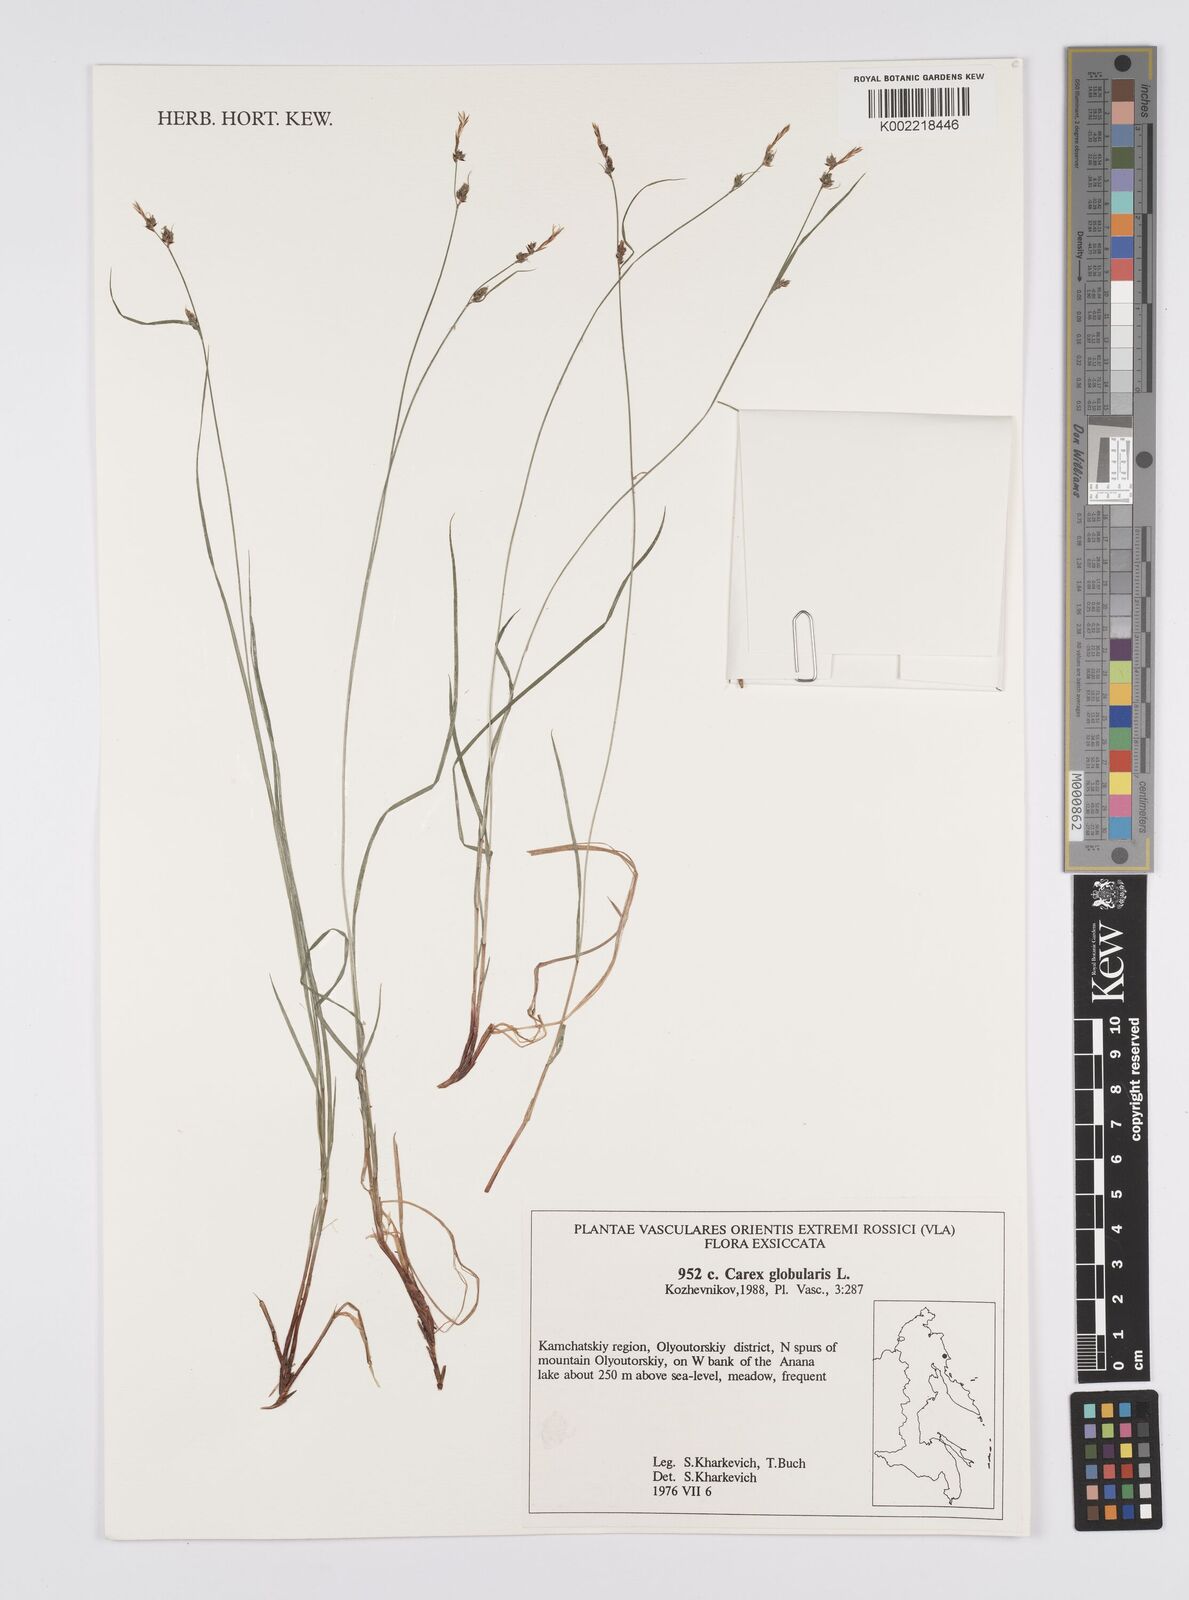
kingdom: Plantae
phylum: Tracheophyta
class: Liliopsida
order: Poales
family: Cyperaceae
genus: Carex
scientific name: Carex globularis
